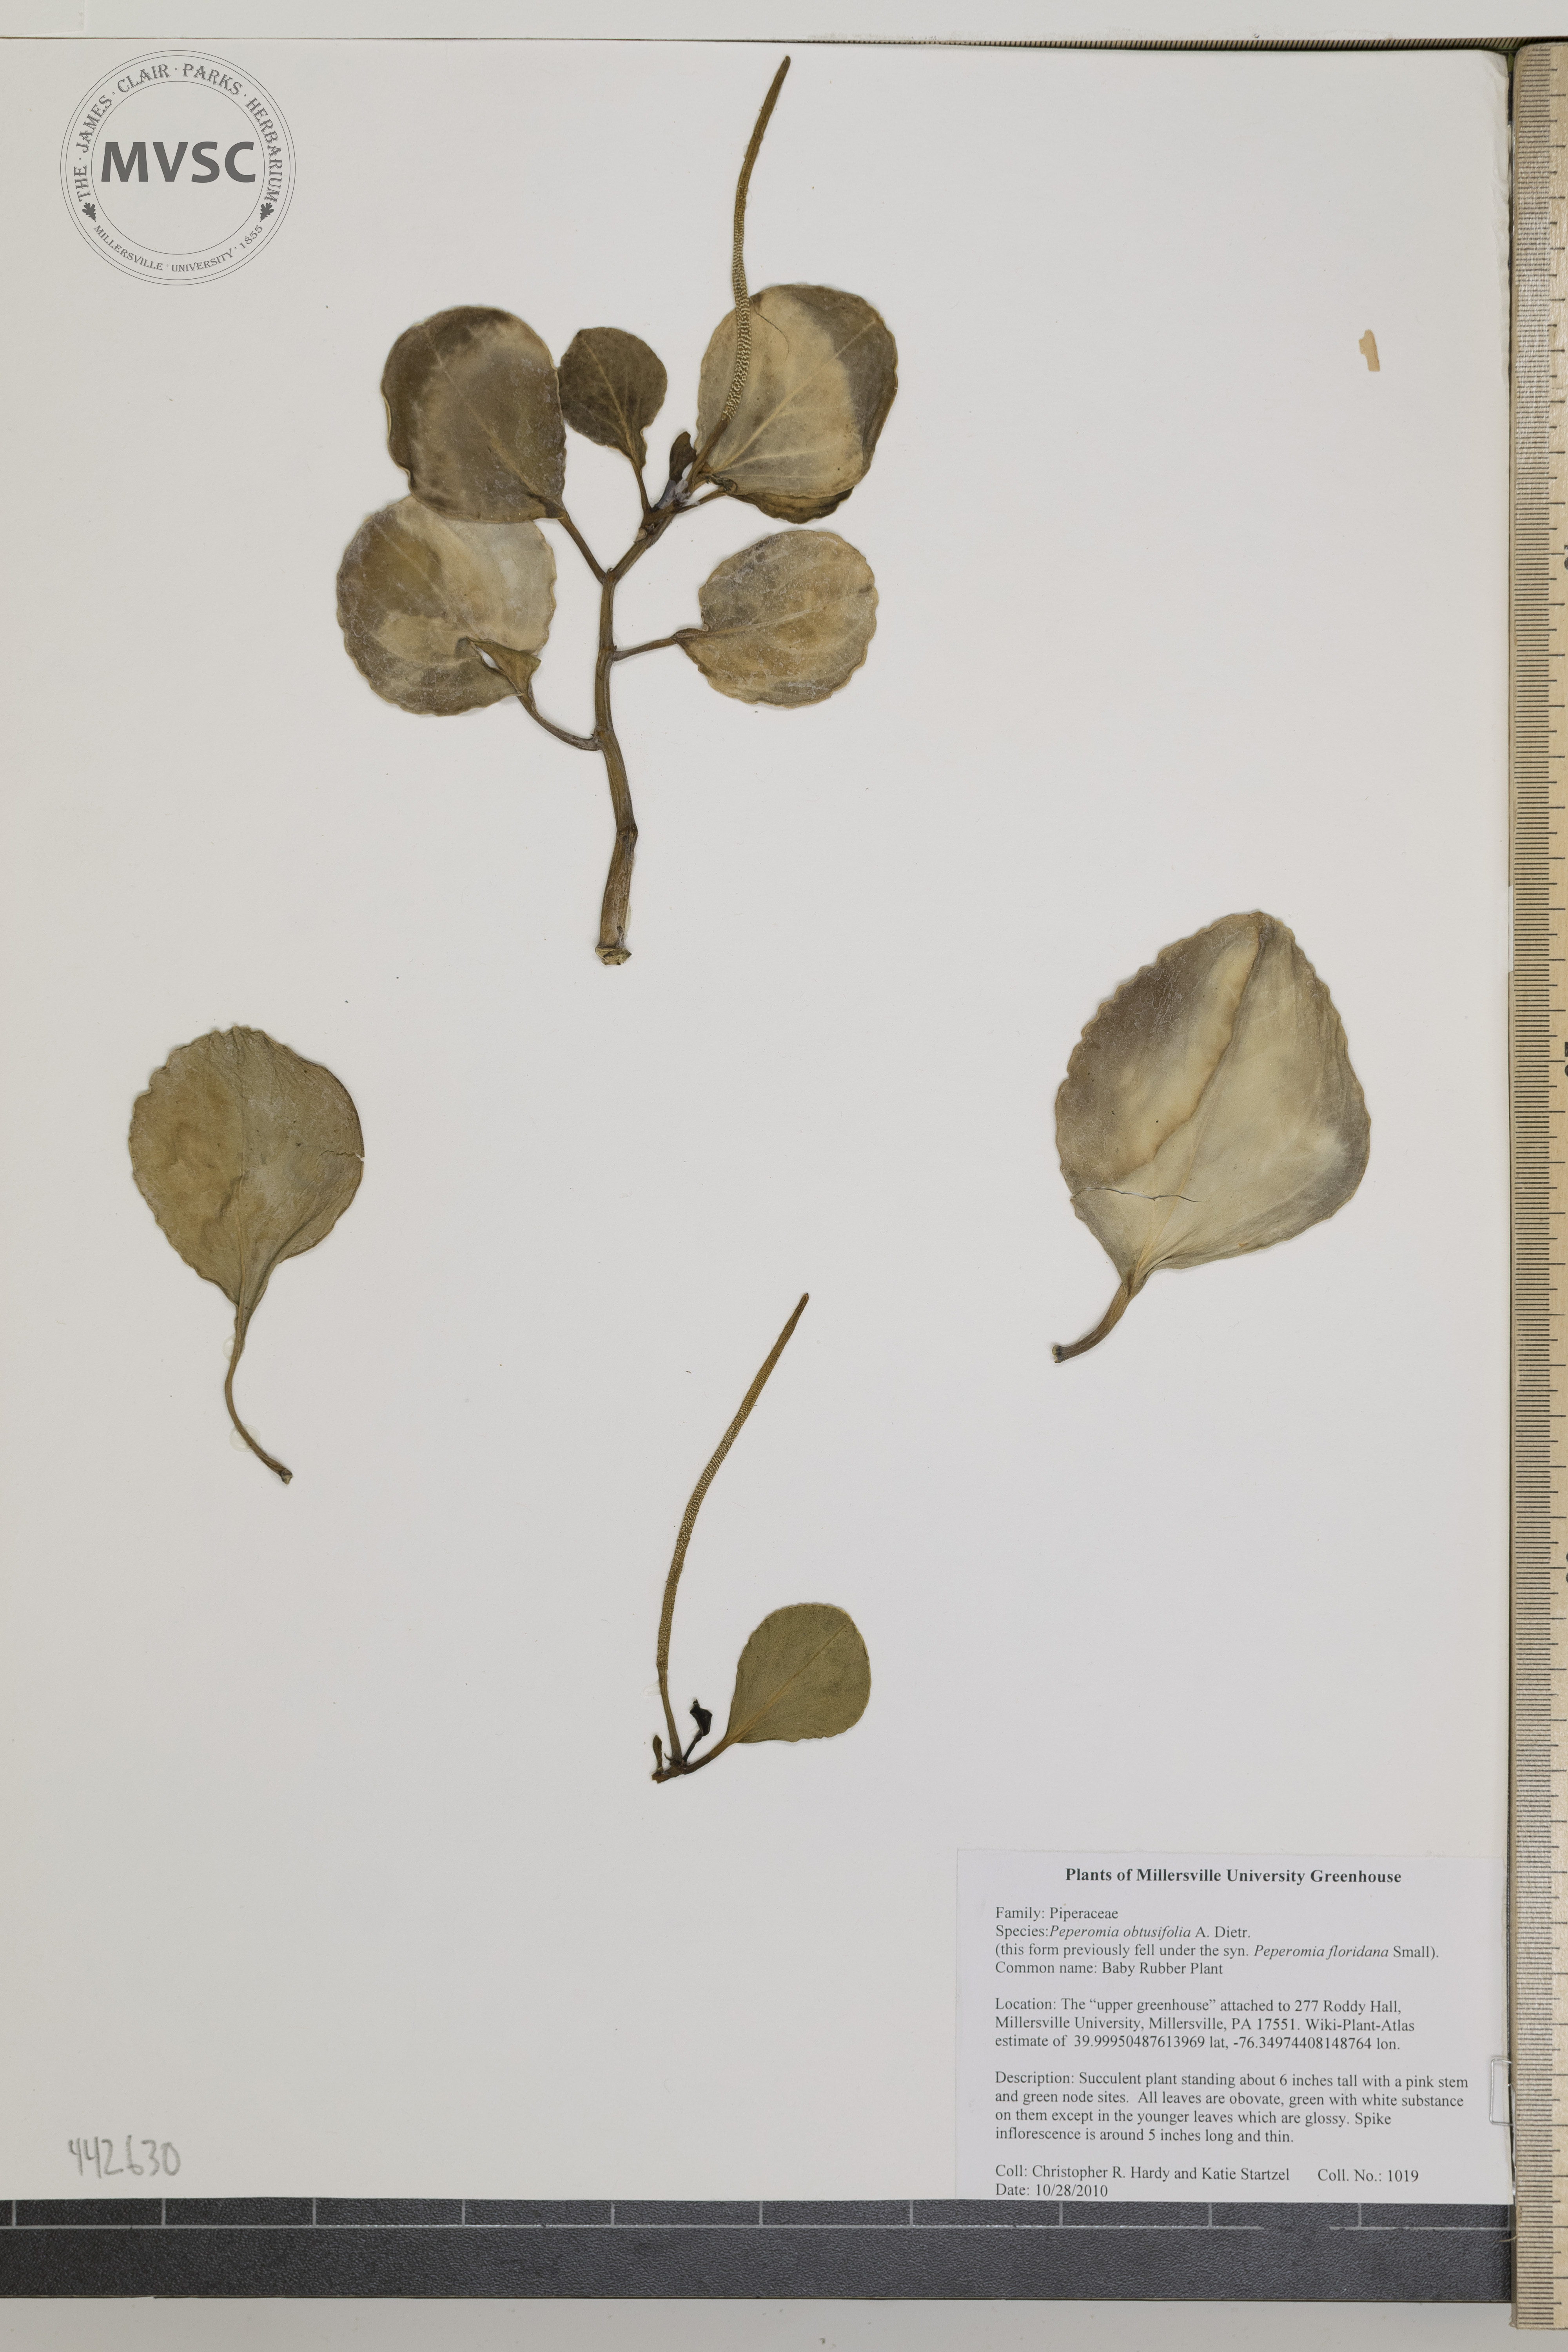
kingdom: Plantae
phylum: Tracheophyta
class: Magnoliopsida
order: Piperales
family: Piperaceae
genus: Peperomia
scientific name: Peperomia obtusifolia
